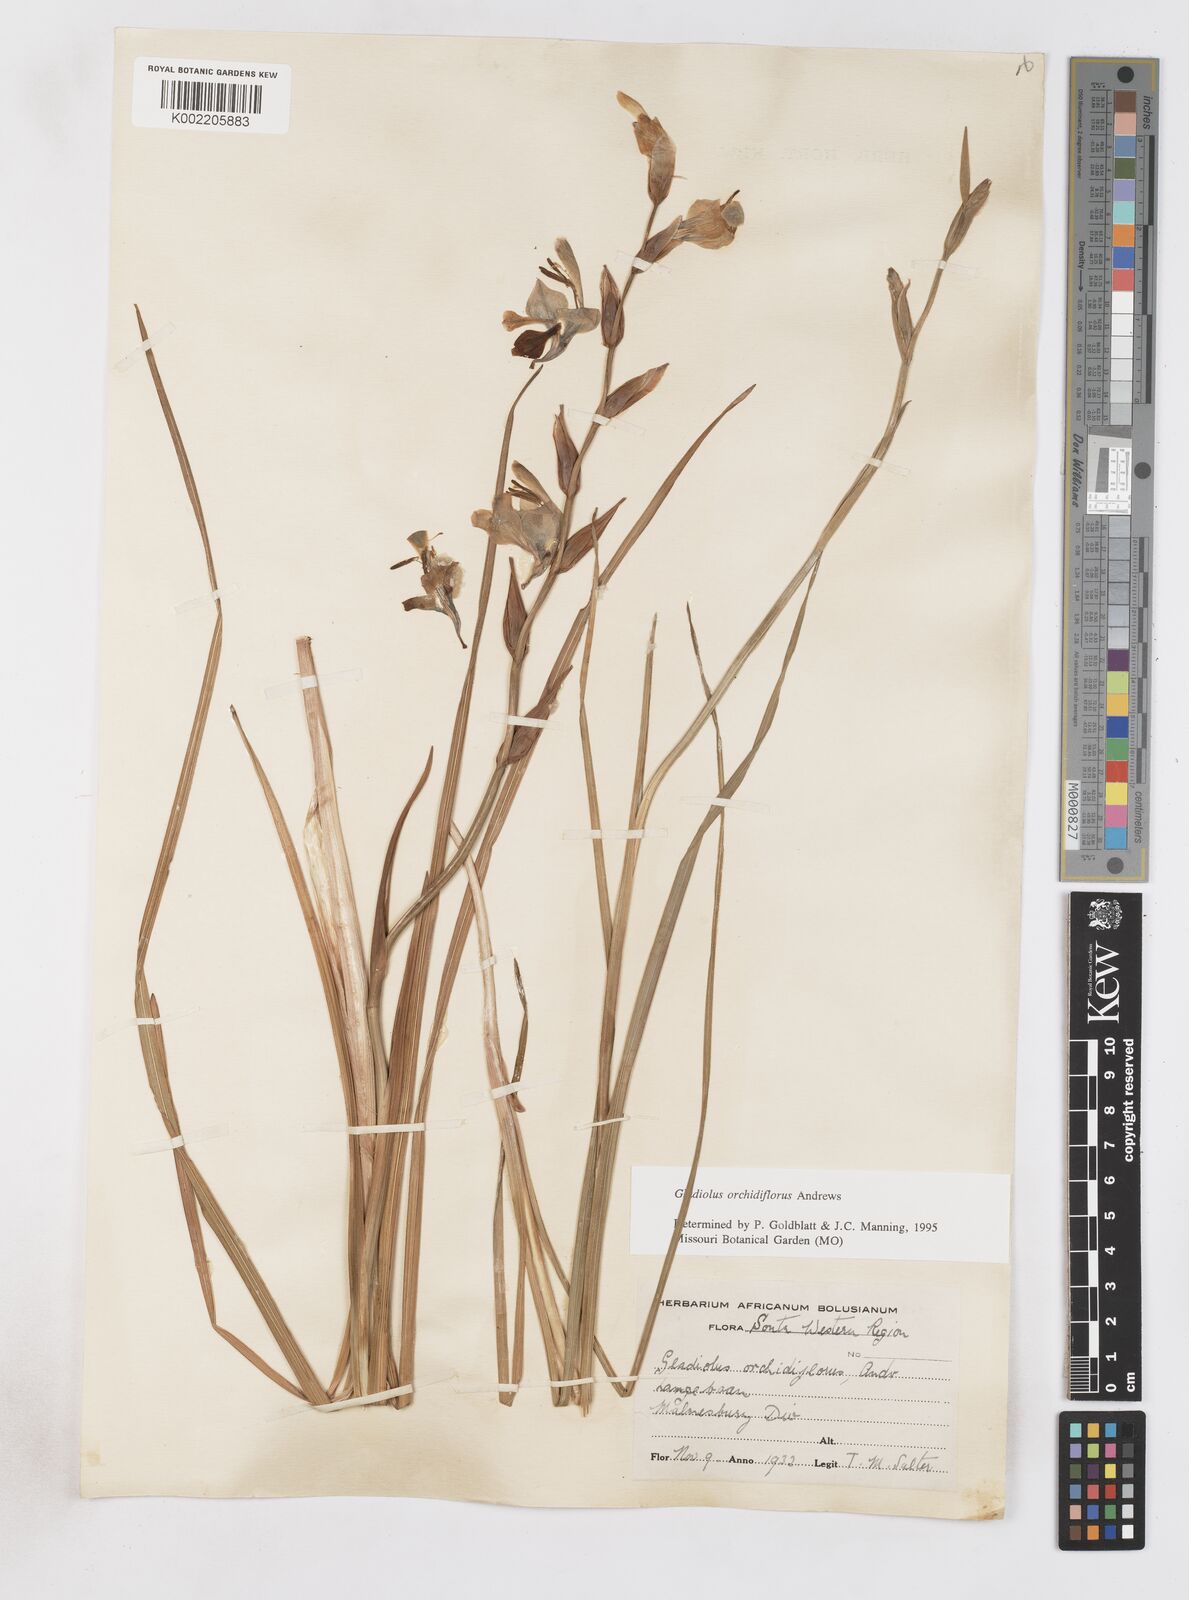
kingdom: Plantae
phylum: Tracheophyta
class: Liliopsida
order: Asparagales
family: Iridaceae
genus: Gladiolus
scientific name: Gladiolus orchidiflorus
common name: Gray kalkoentjie
